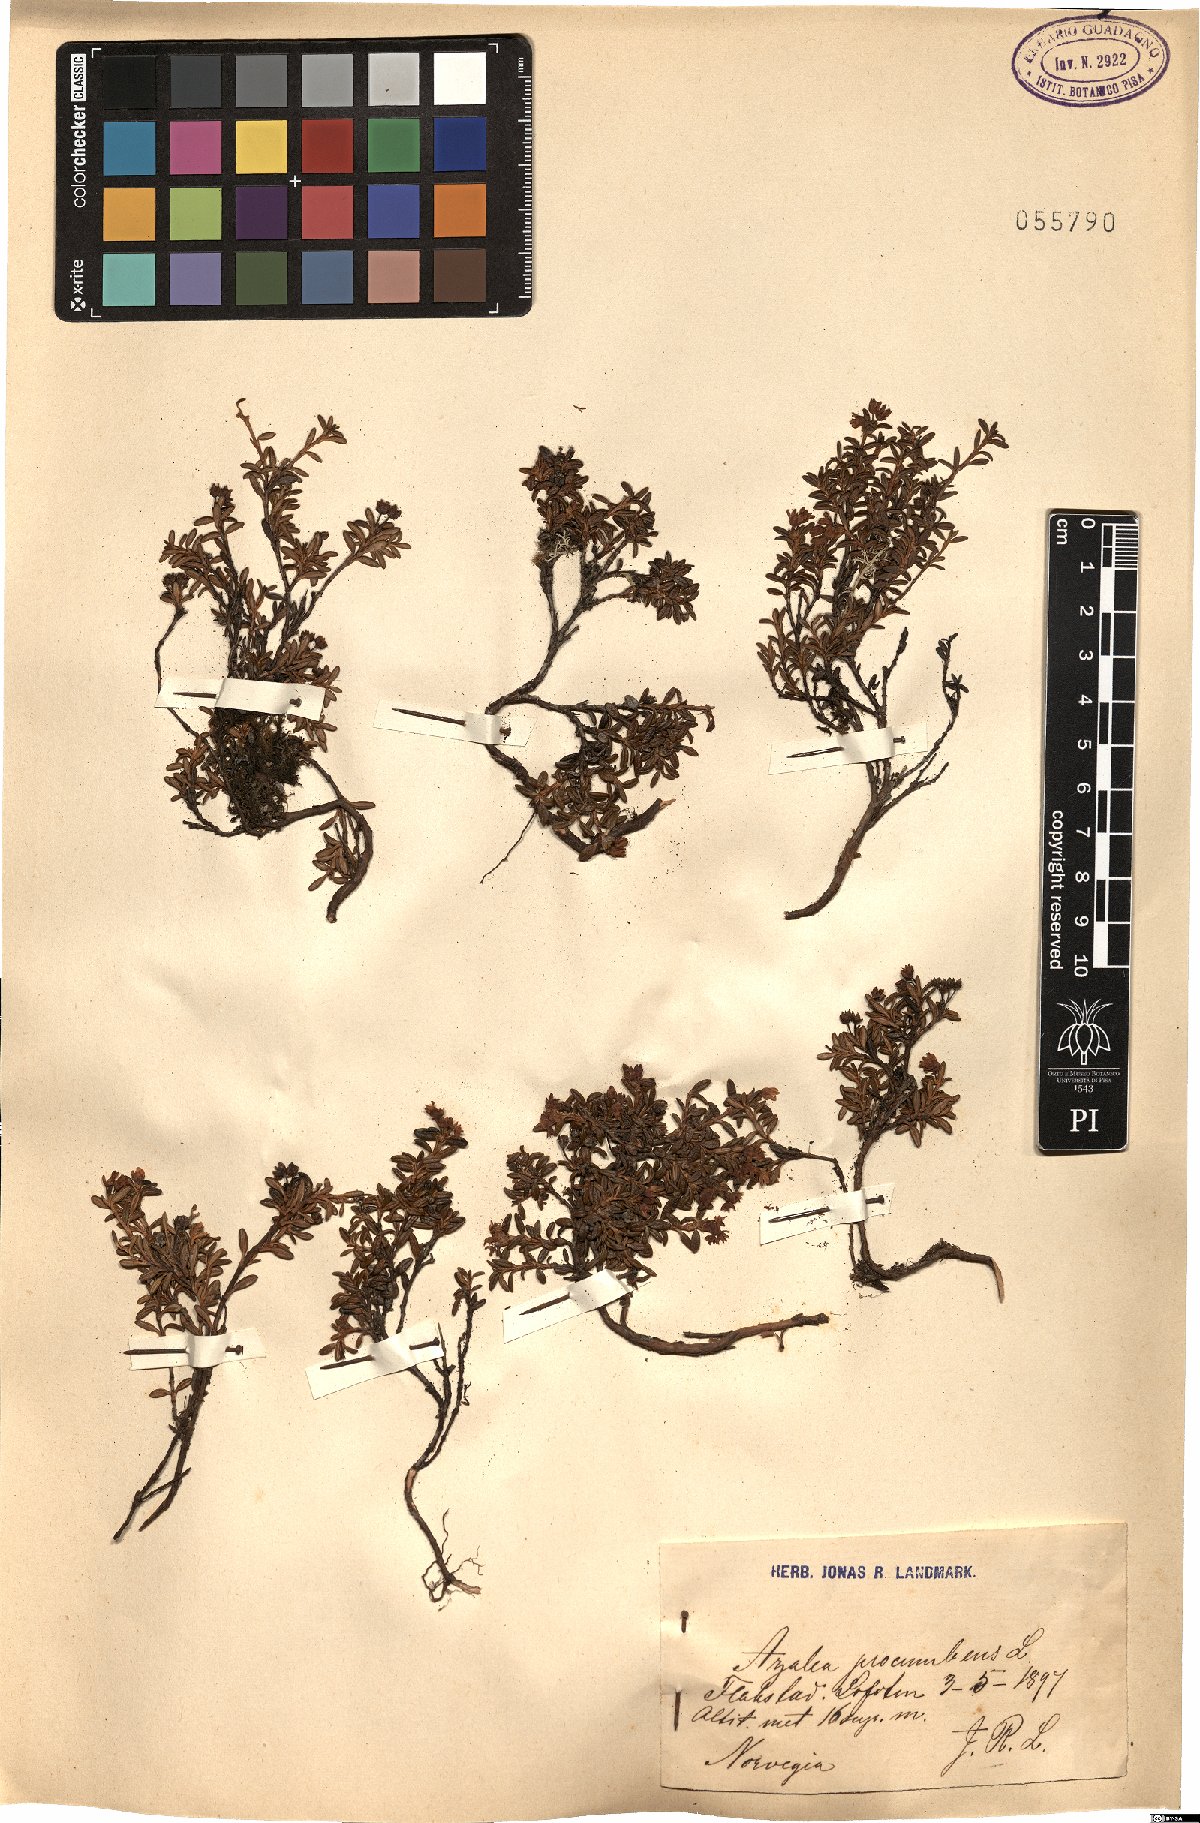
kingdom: Plantae
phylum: Tracheophyta
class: Magnoliopsida
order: Ericales
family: Ericaceae
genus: Kalmia
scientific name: Kalmia procumbens
